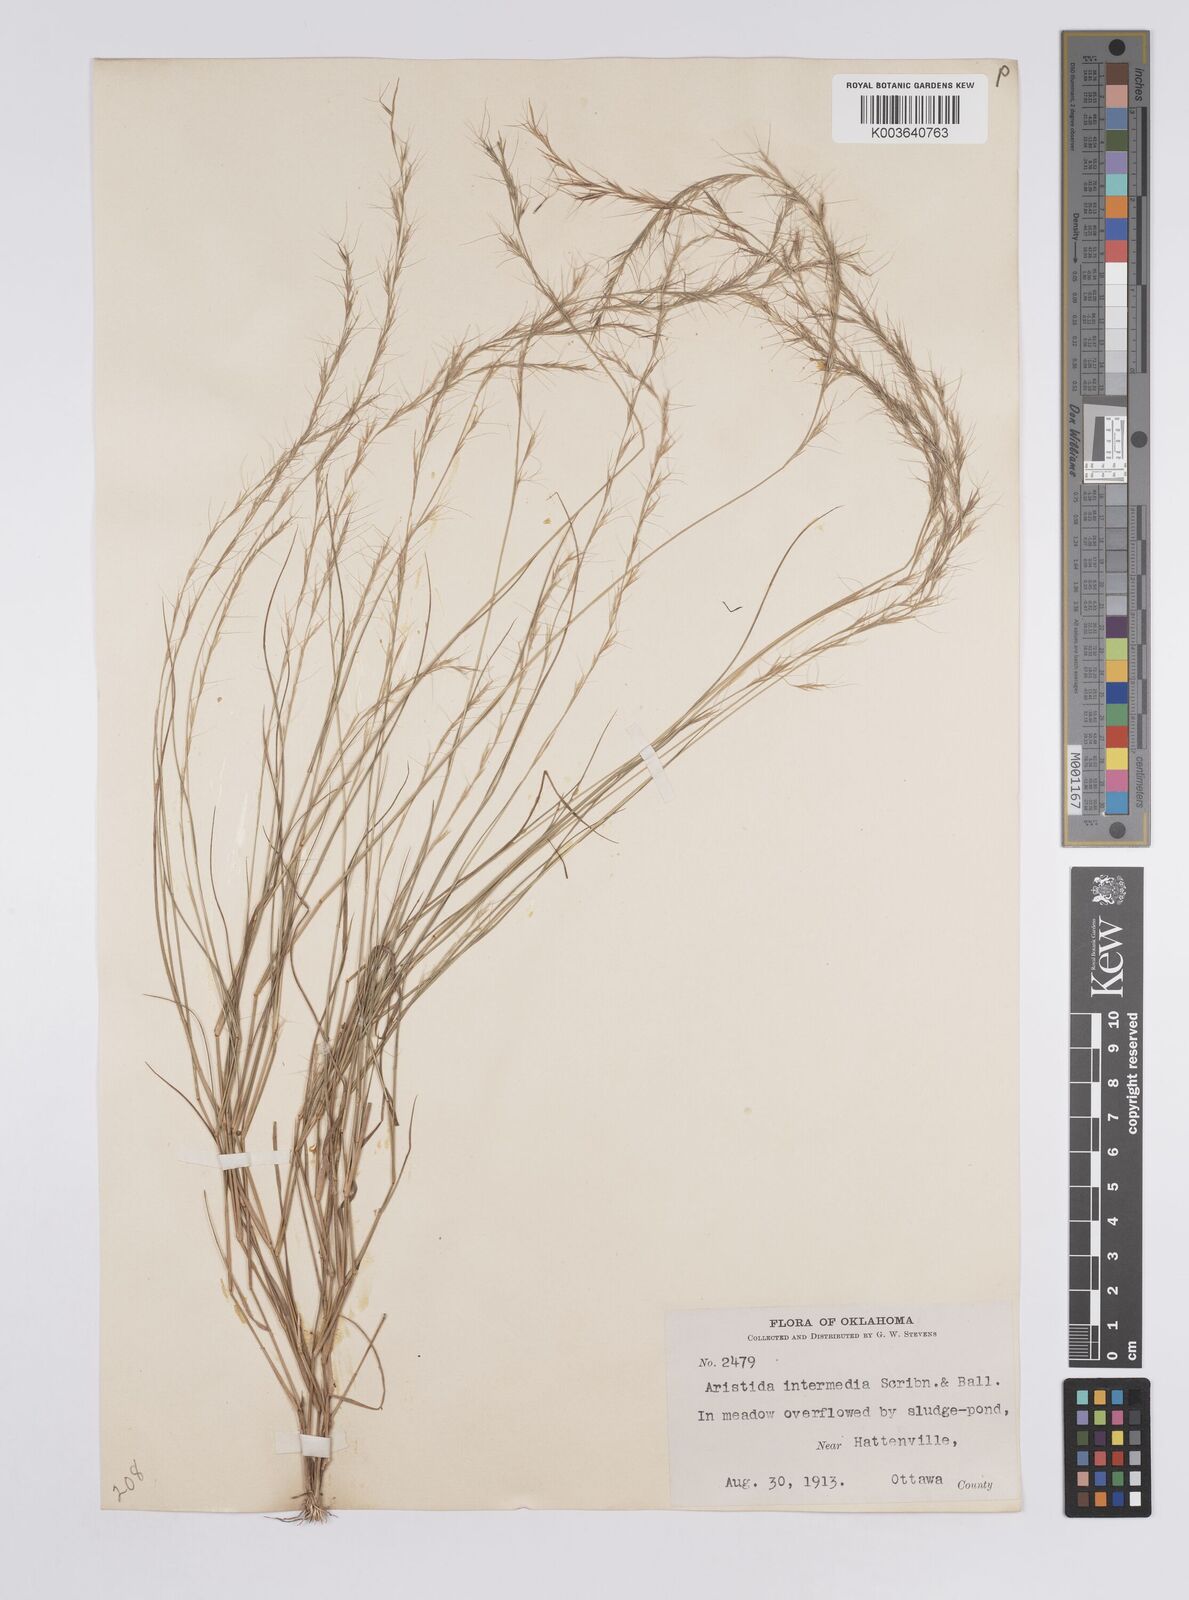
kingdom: Plantae
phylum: Tracheophyta
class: Liliopsida
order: Poales
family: Poaceae
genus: Aristida
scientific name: Aristida adscensionis
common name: Sixweeks threeawn
